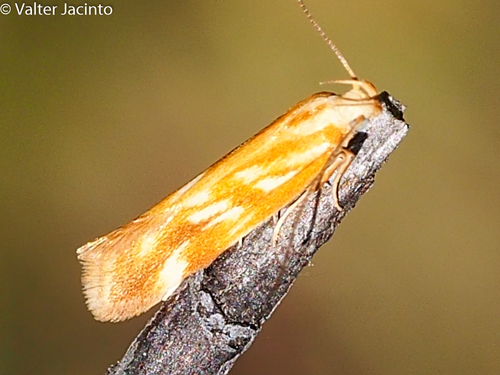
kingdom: Animalia
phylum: Arthropoda
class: Insecta
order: Lepidoptera
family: Gelechiidae
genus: Mirificarma
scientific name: Mirificarma eburnella
